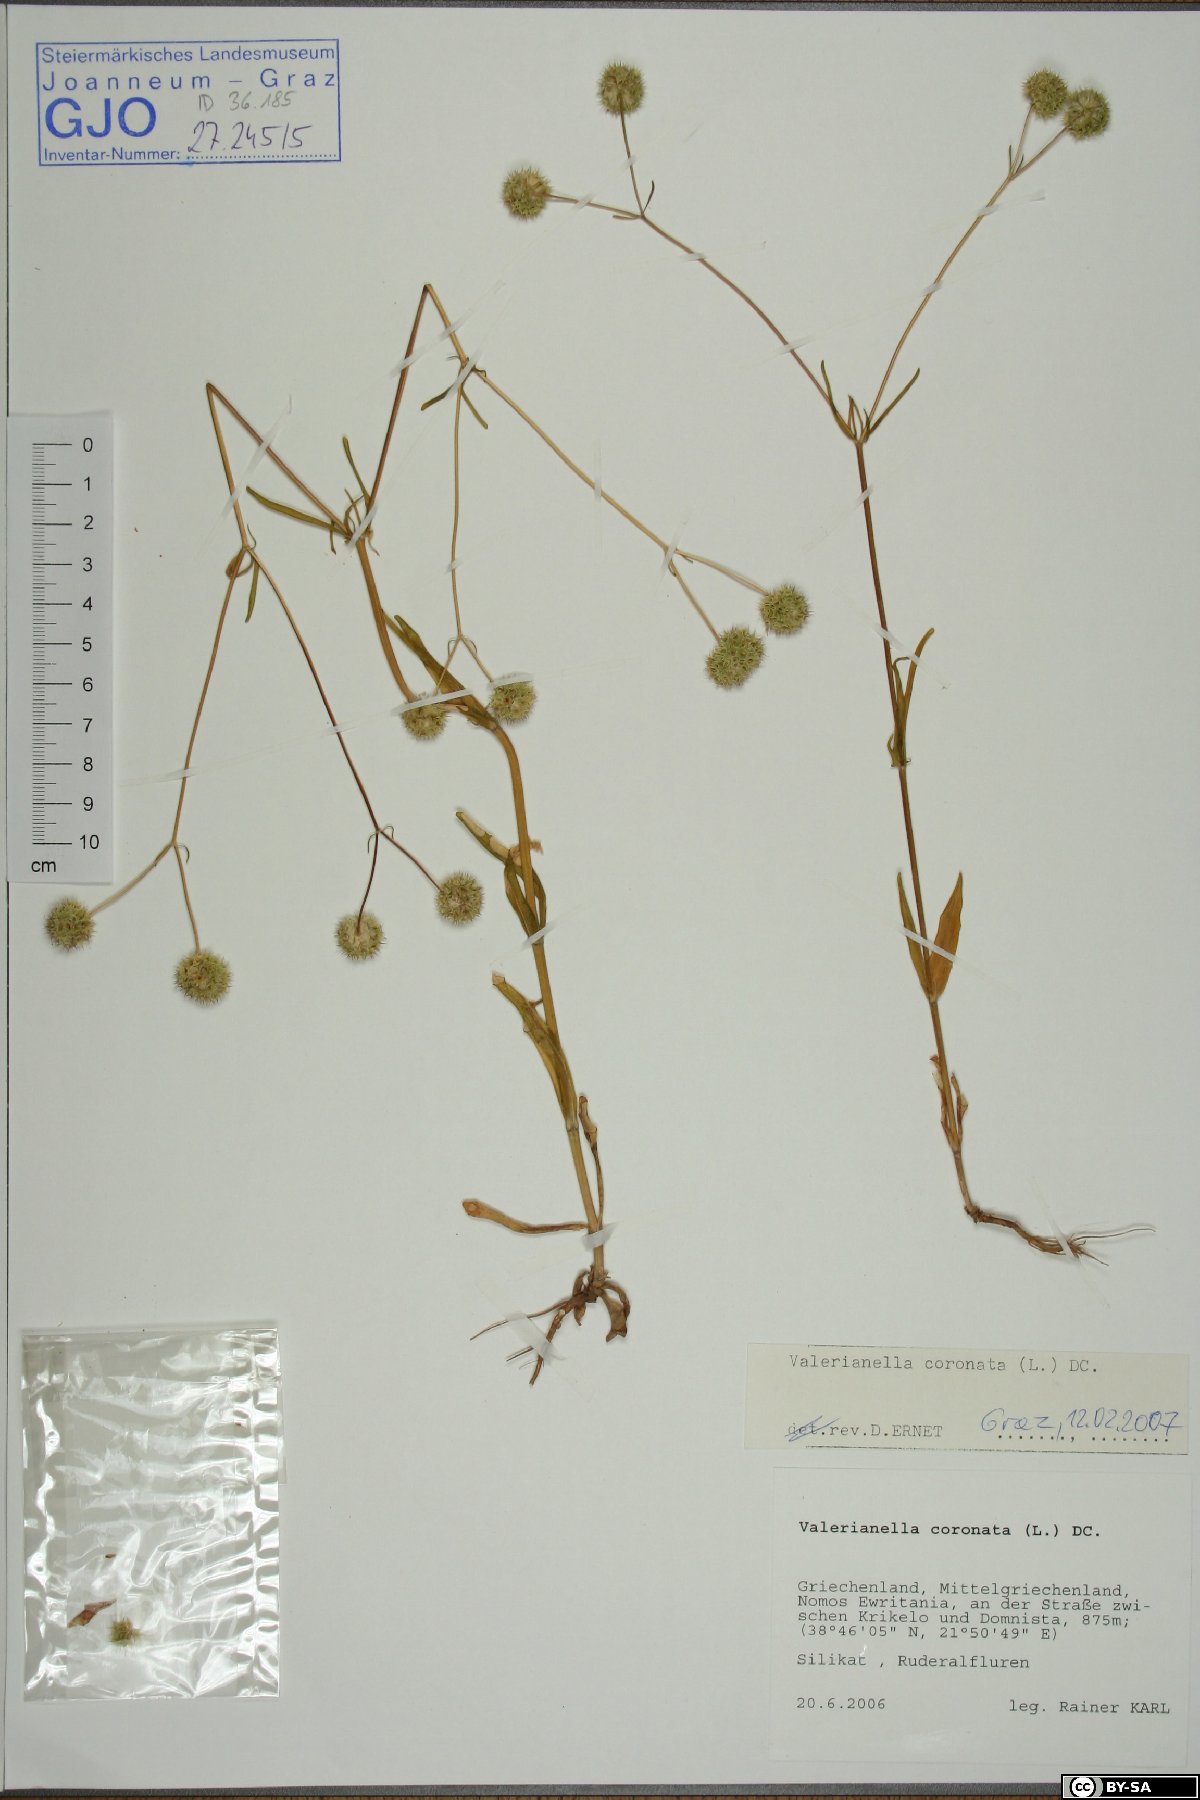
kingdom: Plantae
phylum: Tracheophyta
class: Magnoliopsida
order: Dipsacales
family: Caprifoliaceae
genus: Valerianella
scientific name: Valerianella coronata
